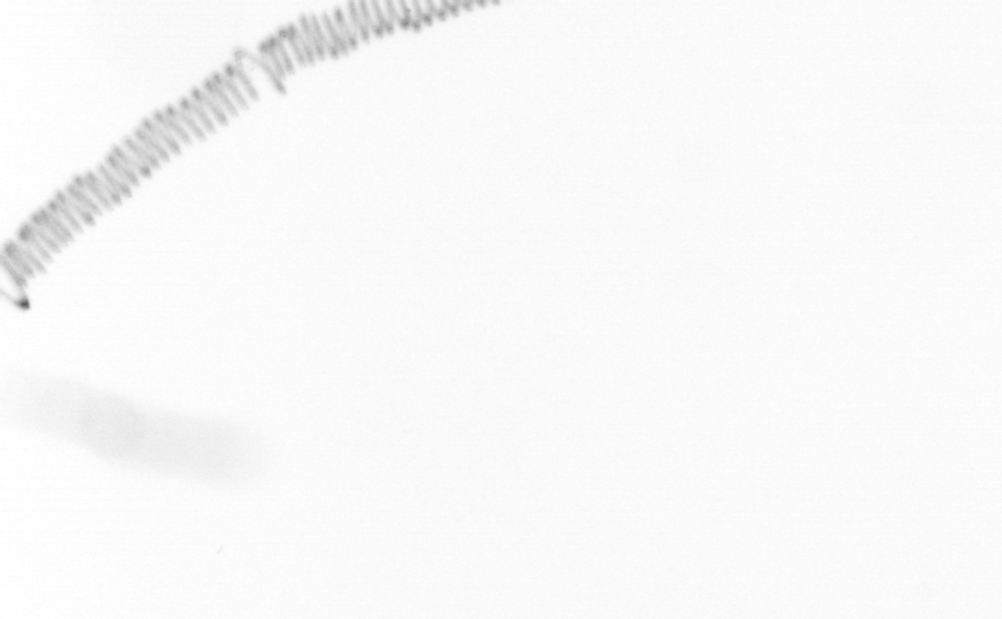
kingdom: Chromista
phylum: Ochrophyta
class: Bacillariophyceae
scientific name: Bacillariophyceae
